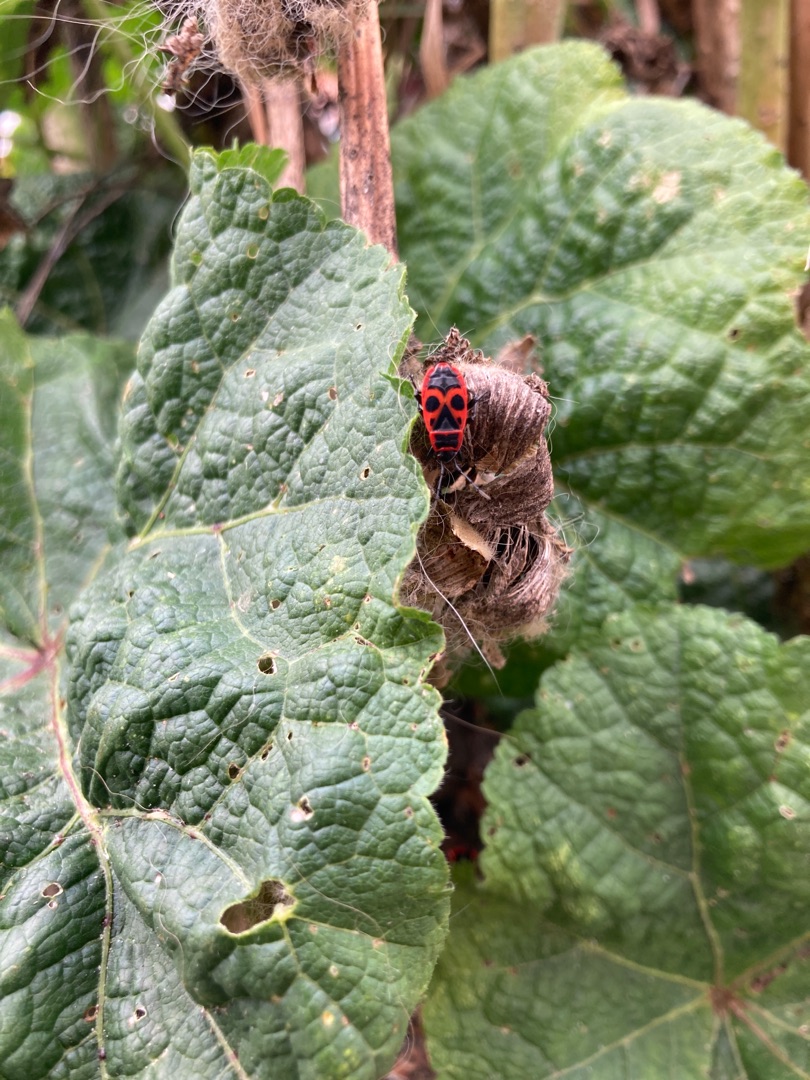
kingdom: Animalia
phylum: Arthropoda
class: Insecta
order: Hemiptera
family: Pyrrhocoridae
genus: Pyrrhocoris
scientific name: Pyrrhocoris apterus
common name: Ildtæge
